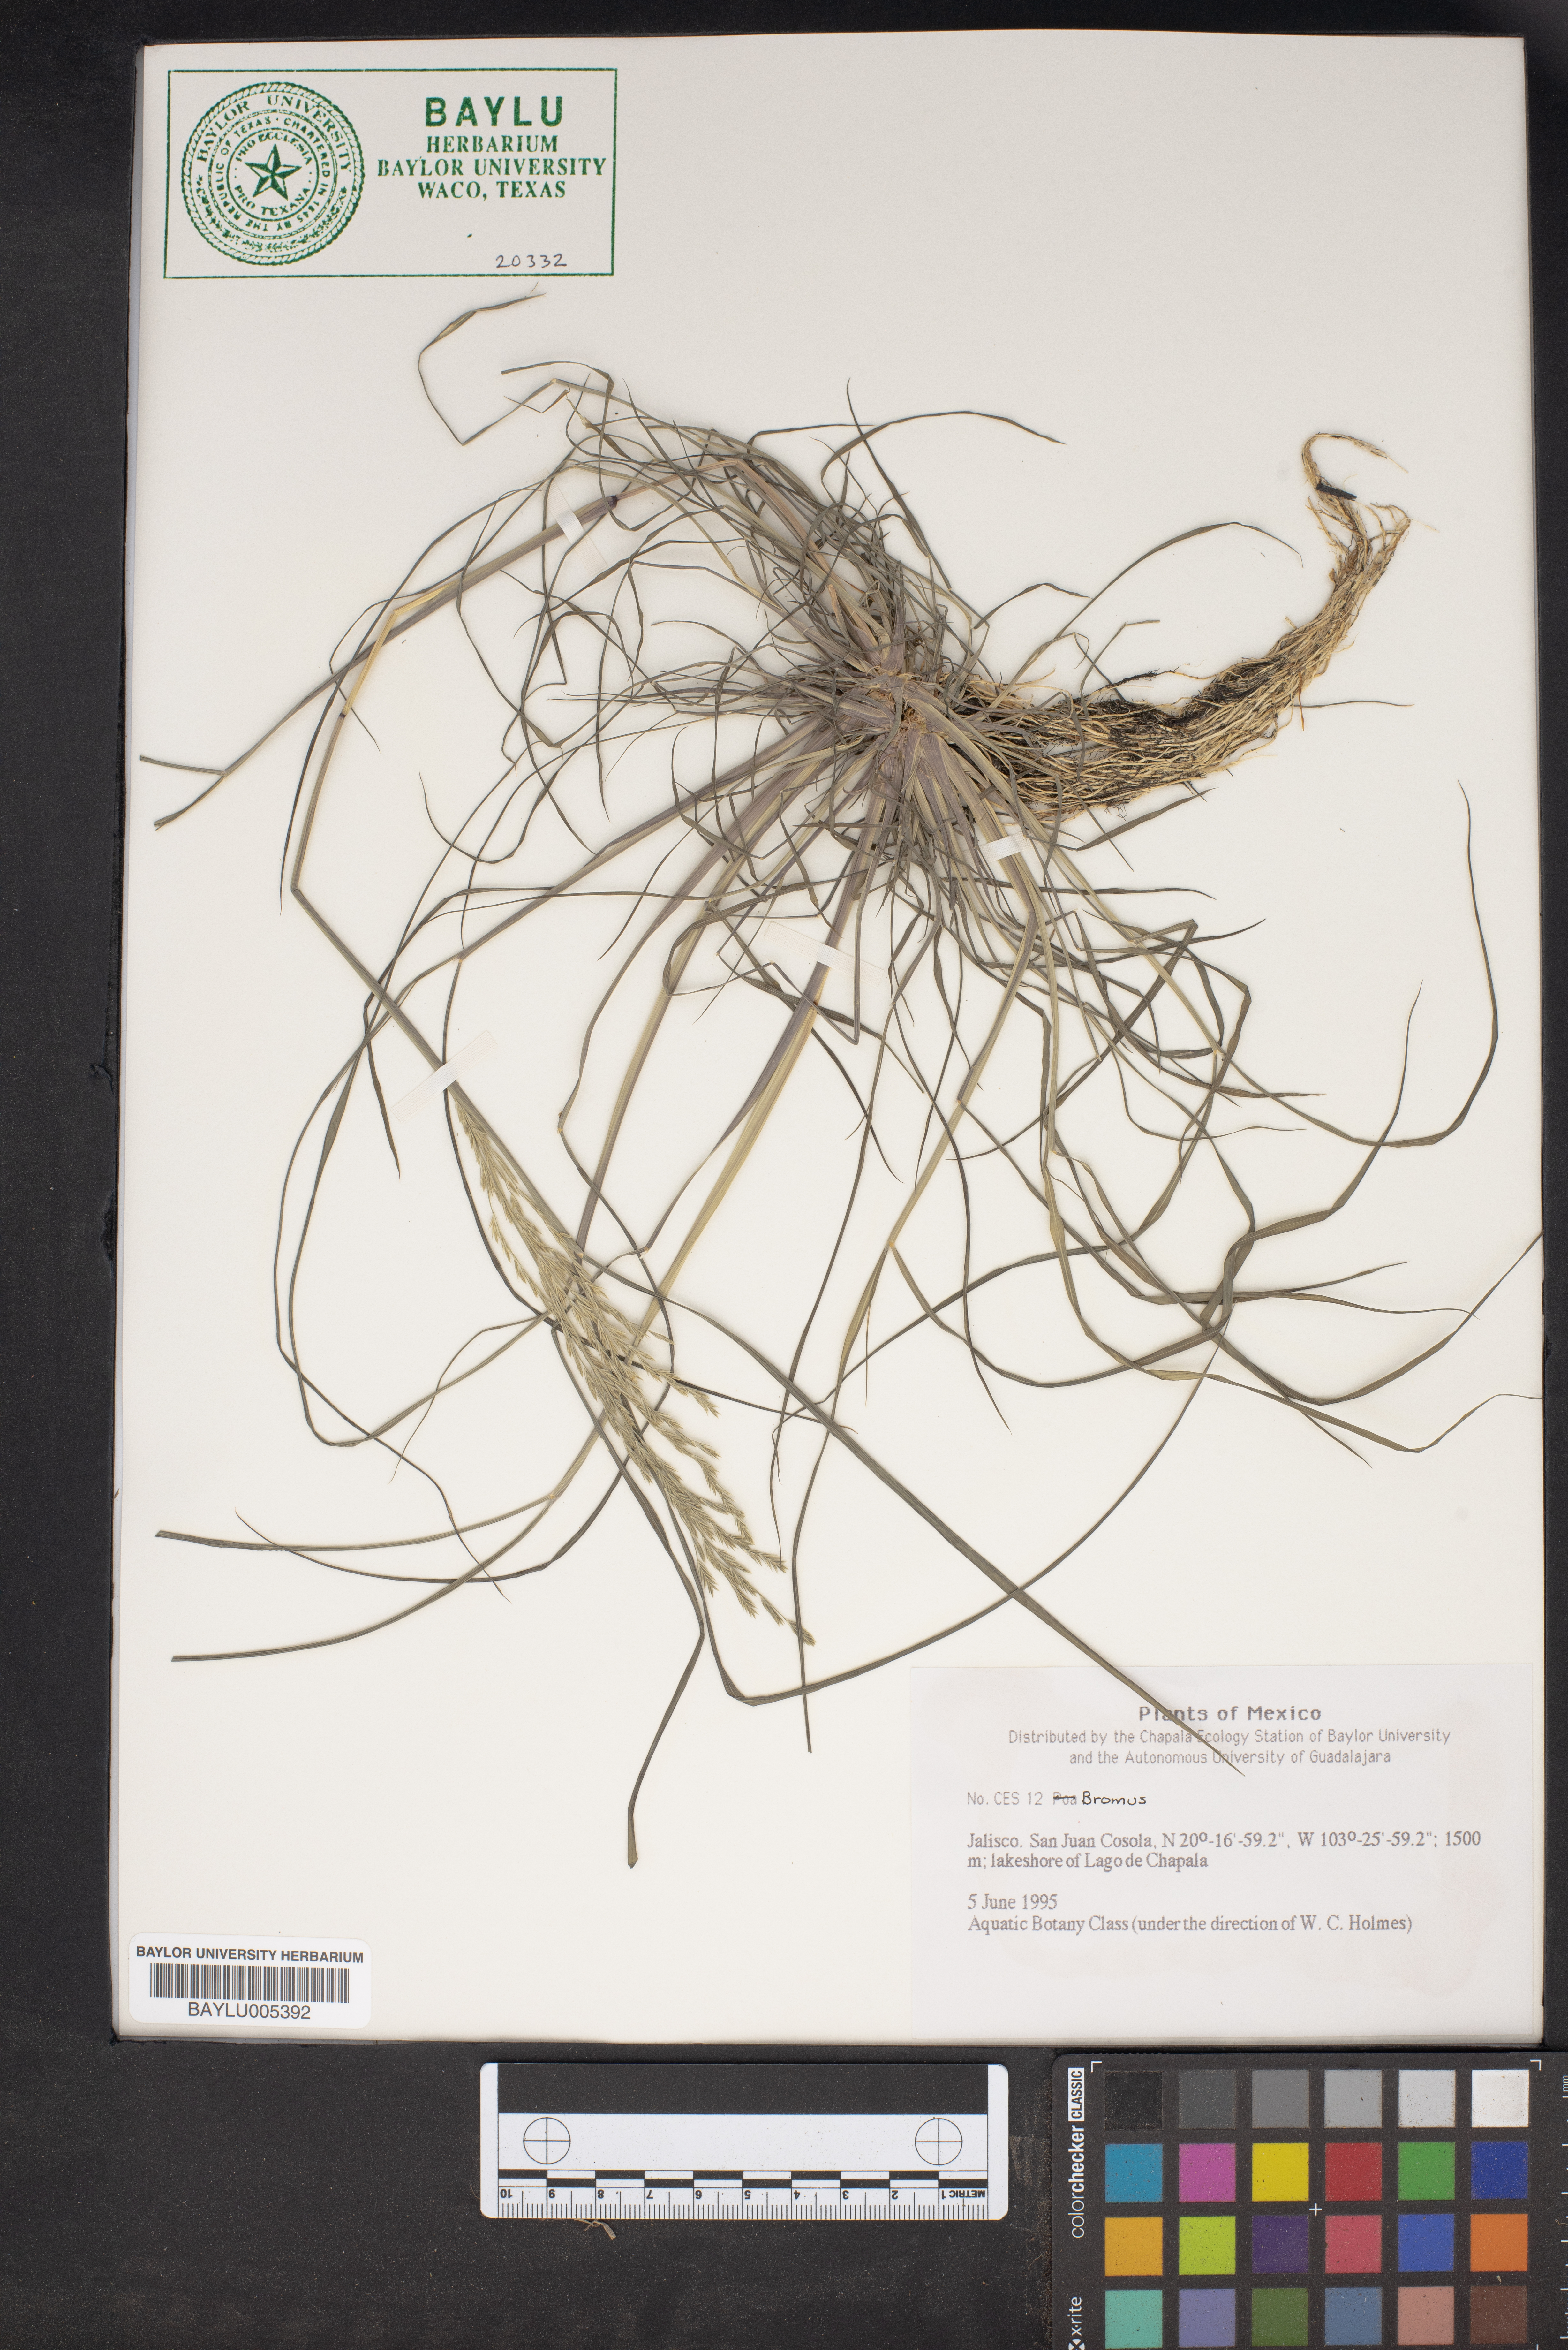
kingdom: Plantae
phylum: Tracheophyta
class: Liliopsida
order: Poales
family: Poaceae
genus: Bromus
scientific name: Bromus
